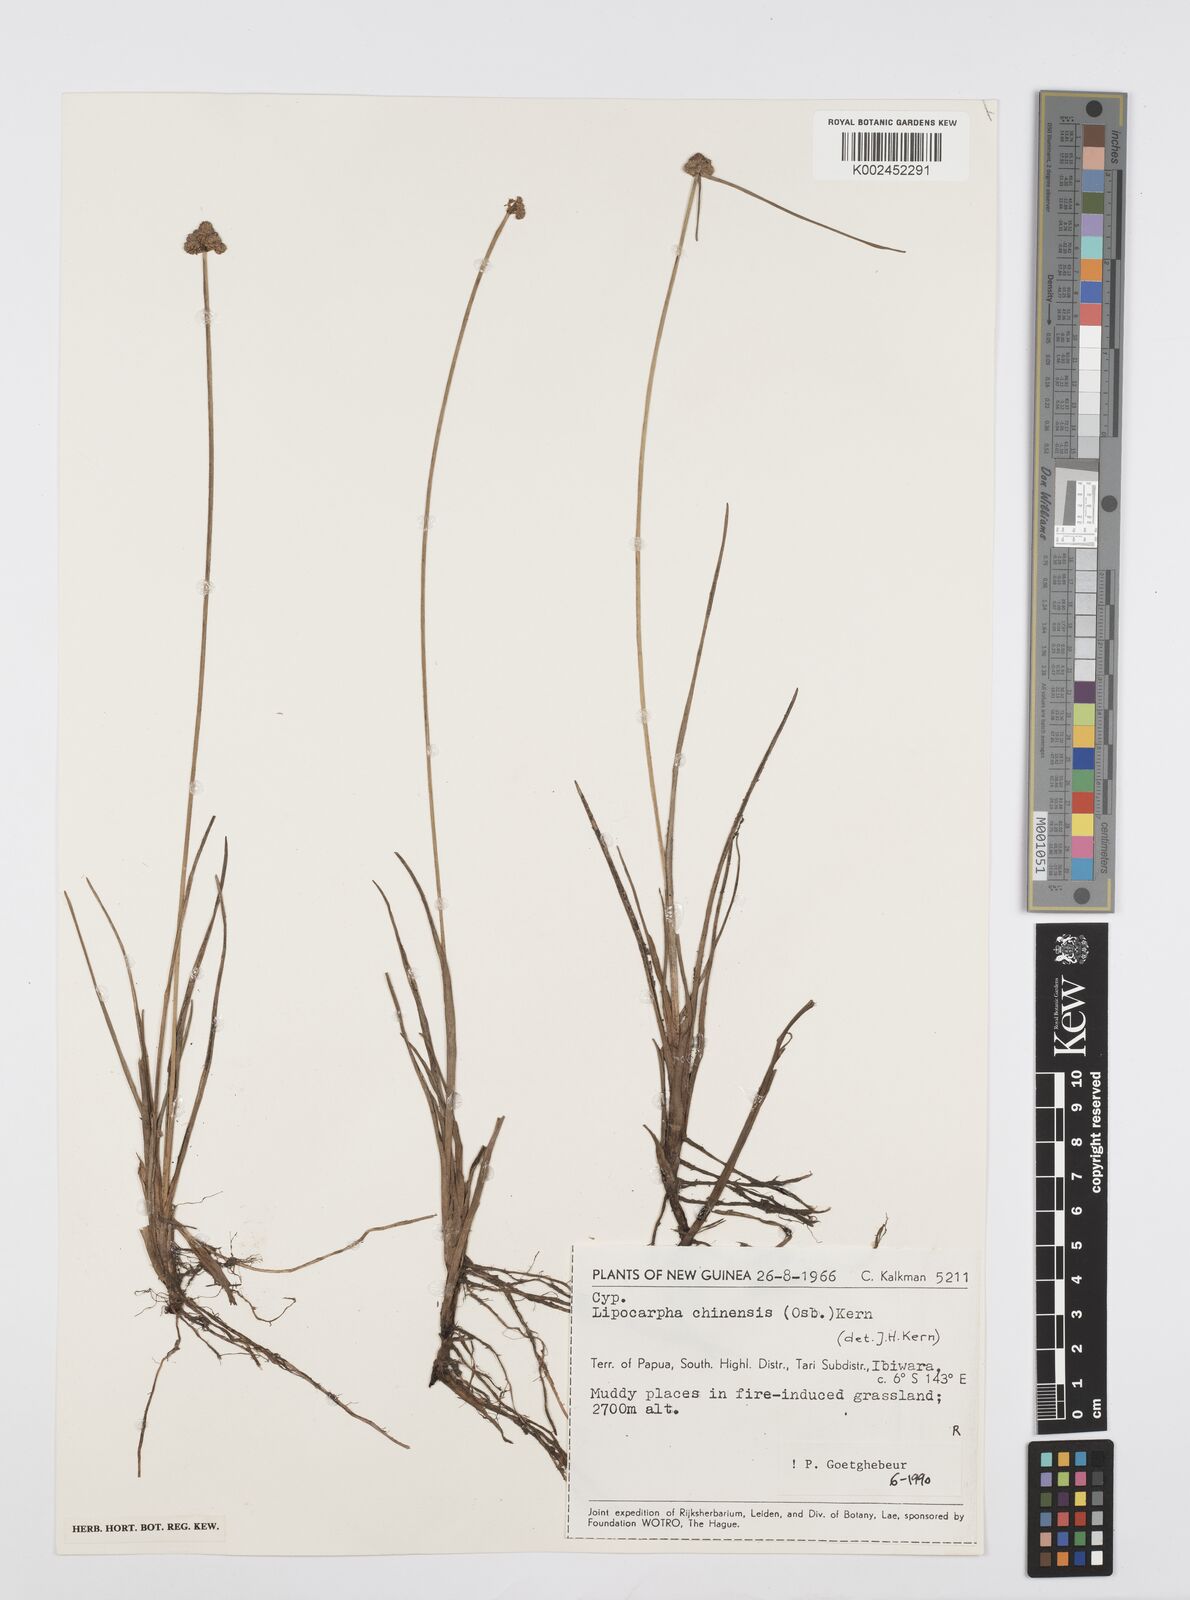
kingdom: Plantae
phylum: Tracheophyta
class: Liliopsida
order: Poales
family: Cyperaceae
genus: Cyperus
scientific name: Cyperus albescens
